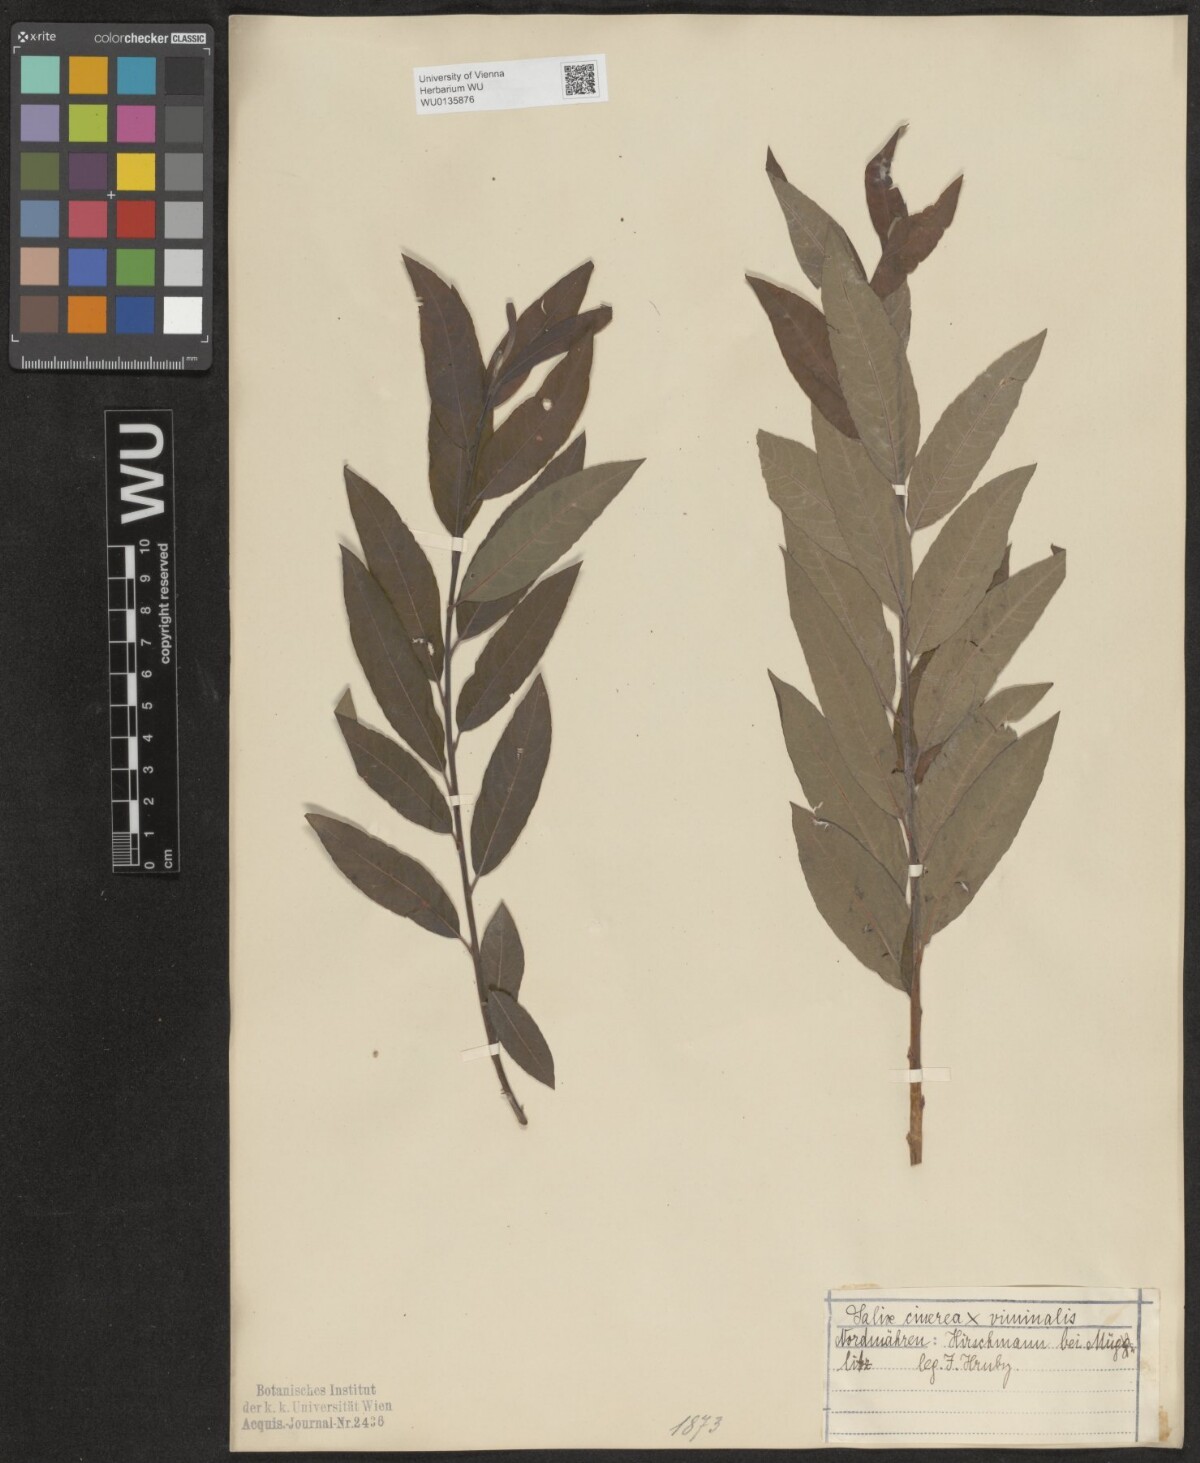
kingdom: Plantae
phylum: Tracheophyta
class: Magnoliopsida
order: Malpighiales
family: Salicaceae
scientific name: Salicaceae
